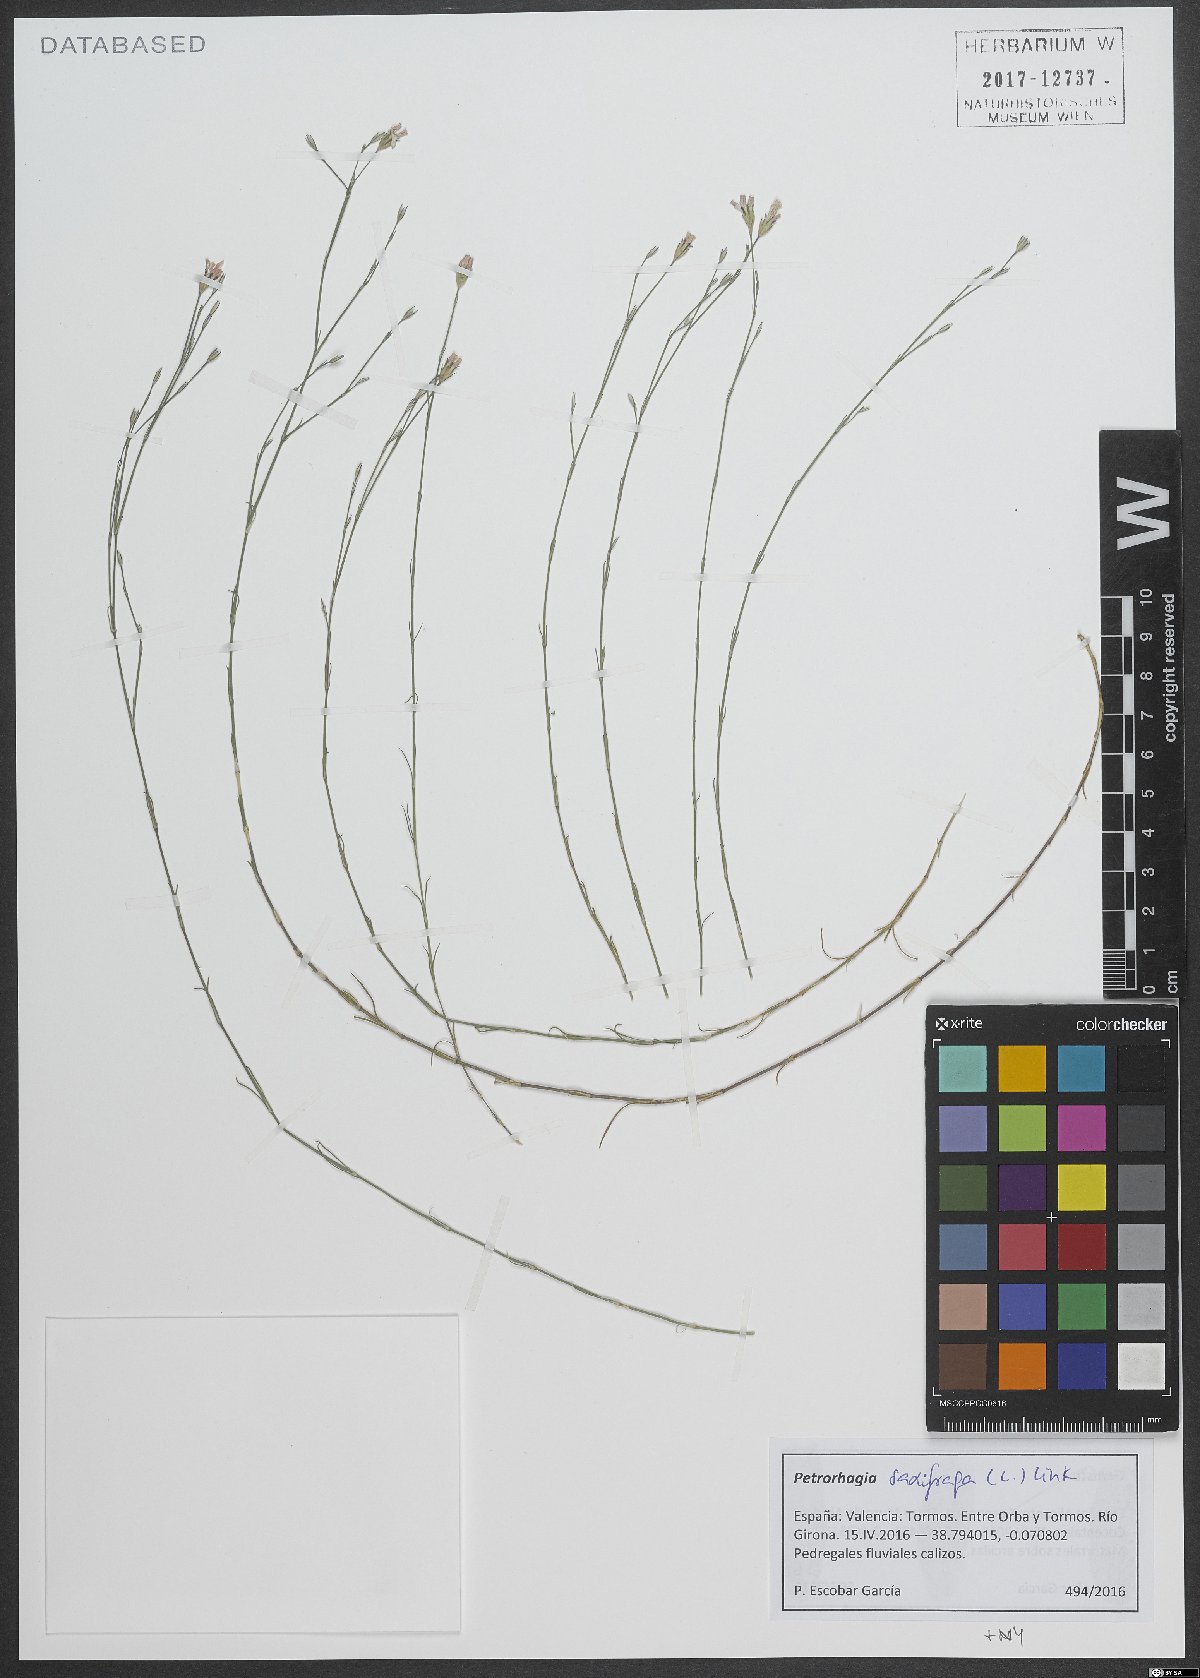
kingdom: Plantae
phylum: Tracheophyta
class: Magnoliopsida
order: Caryophyllales
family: Caryophyllaceae
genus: Petrorhagia
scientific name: Petrorhagia saxifraga
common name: Tunicflower
